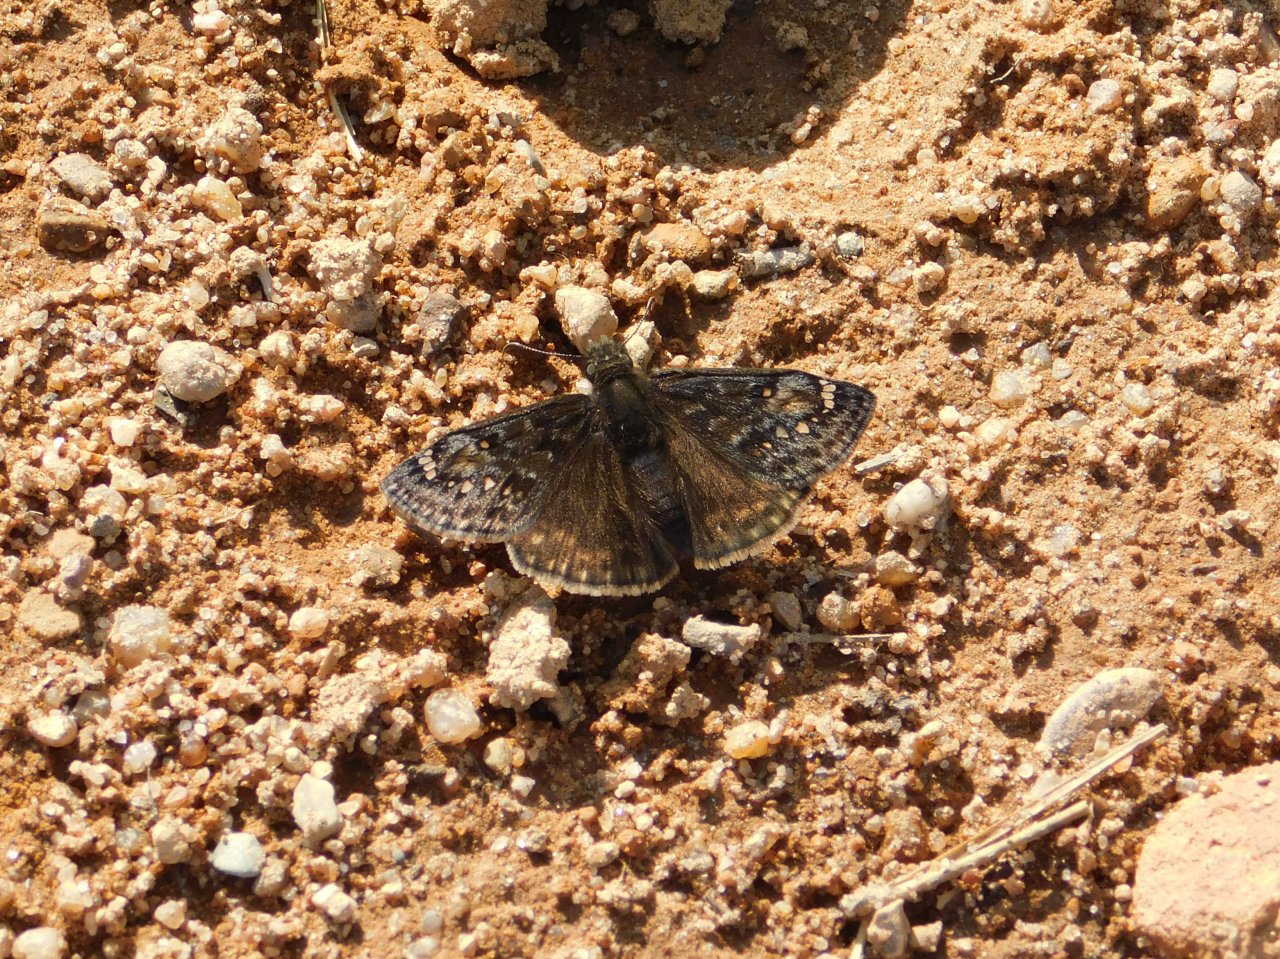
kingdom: Animalia
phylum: Arthropoda
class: Insecta
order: Lepidoptera
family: Hesperiidae
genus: Gesta
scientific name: Gesta
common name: Juvenal's Duskywing
